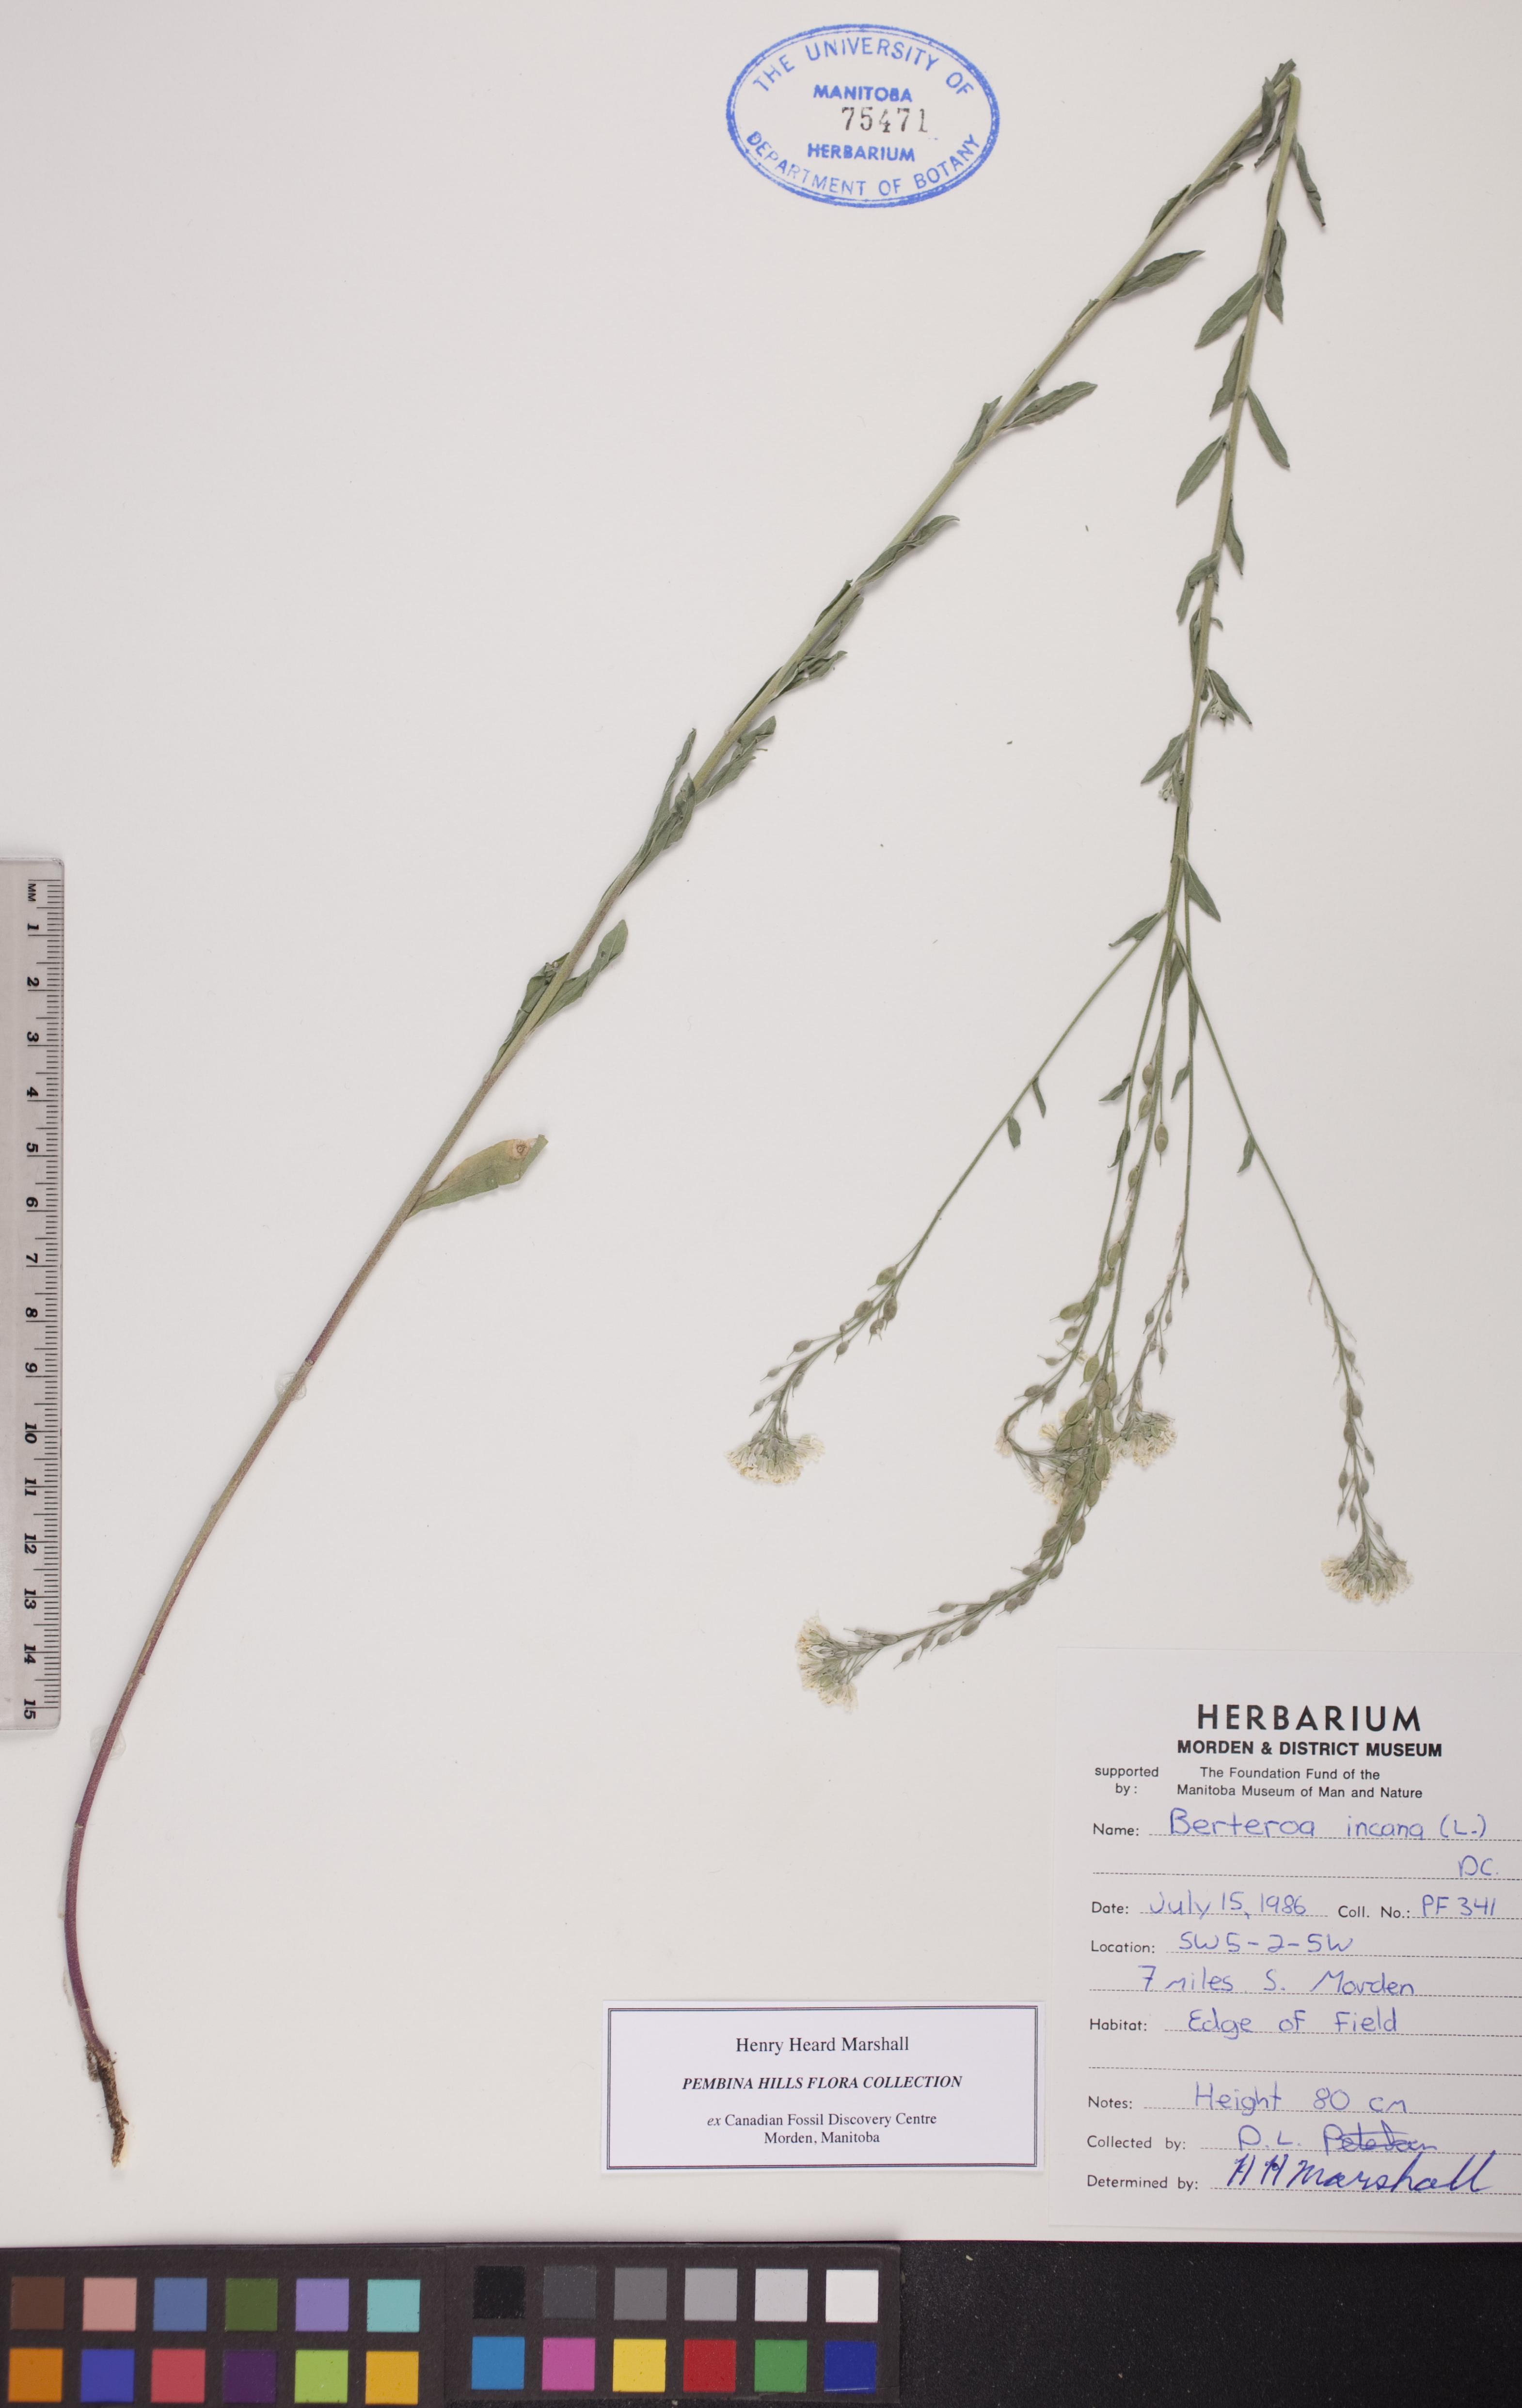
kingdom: Plantae
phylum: Tracheophyta
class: Magnoliopsida
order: Brassicales
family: Brassicaceae
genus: Berteroa
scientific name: Berteroa incana
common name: Hoary alison
